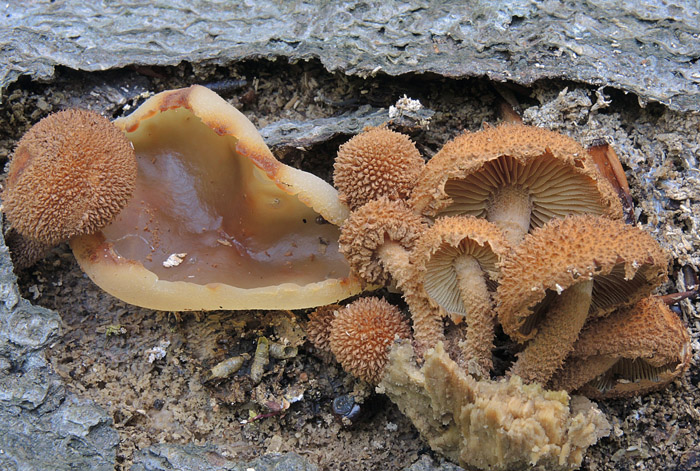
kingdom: Fungi
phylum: Basidiomycota
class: Agaricomycetes
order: Agaricales
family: Tubariaceae
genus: Flammulaster
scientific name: Flammulaster muricatus
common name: pigget grynskælhat
